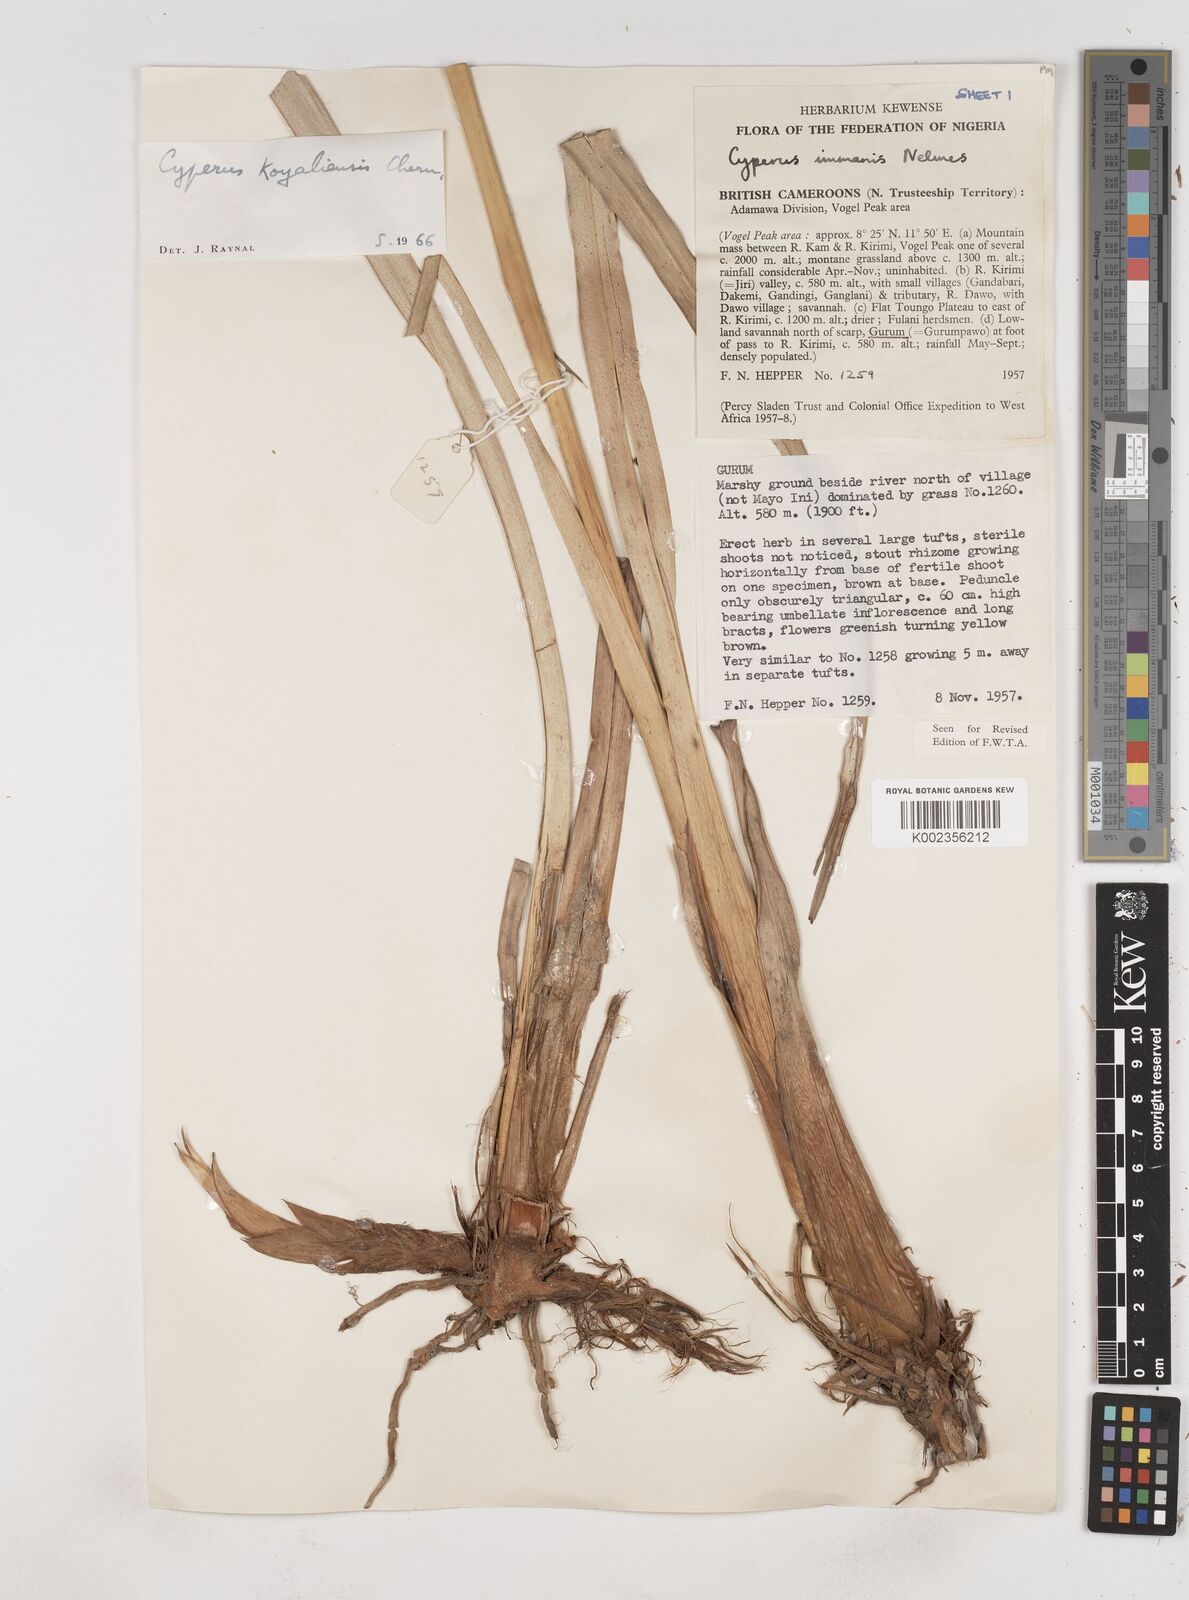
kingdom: Plantae
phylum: Tracheophyta
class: Liliopsida
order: Poales
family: Cyperaceae
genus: Cyperus
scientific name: Cyperus koyaliensis
